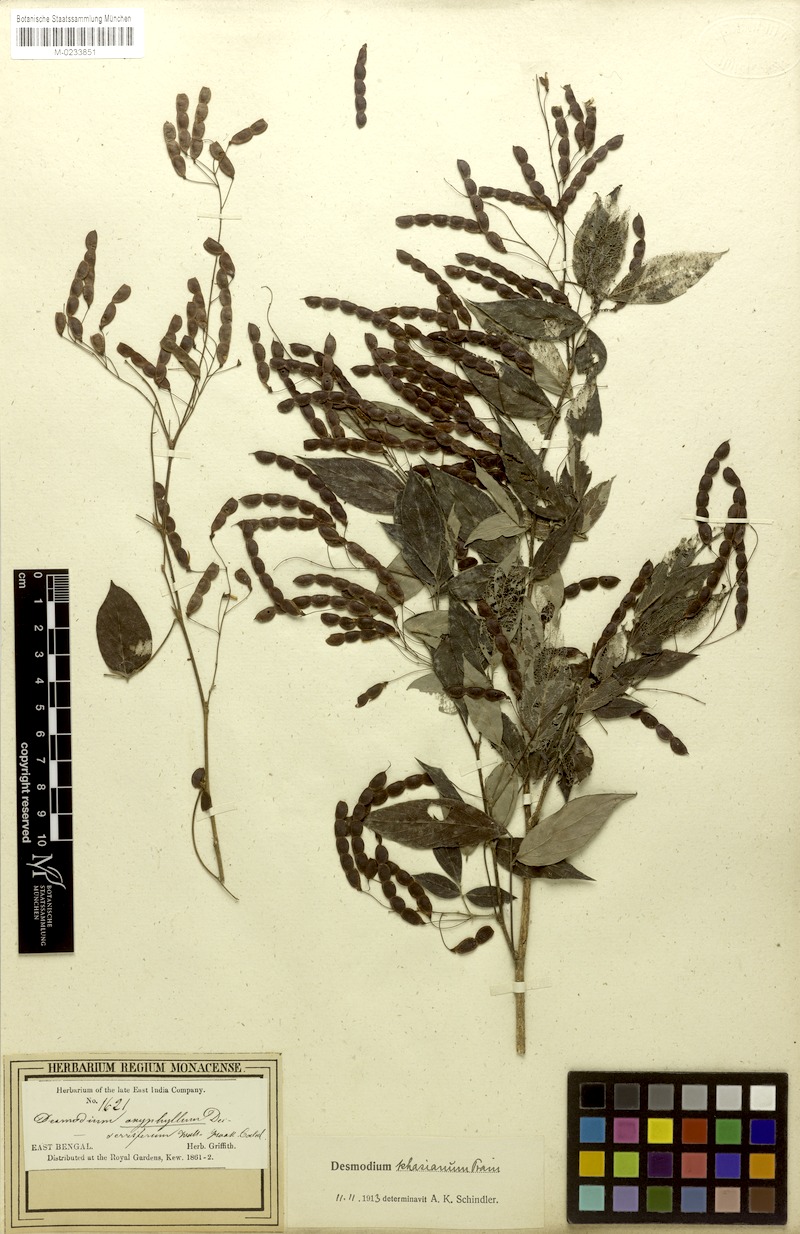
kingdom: Plantae
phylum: Tracheophyta
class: Magnoliopsida
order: Fabales
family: Fabaceae
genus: Ototropis
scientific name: Ototropis khasiana
